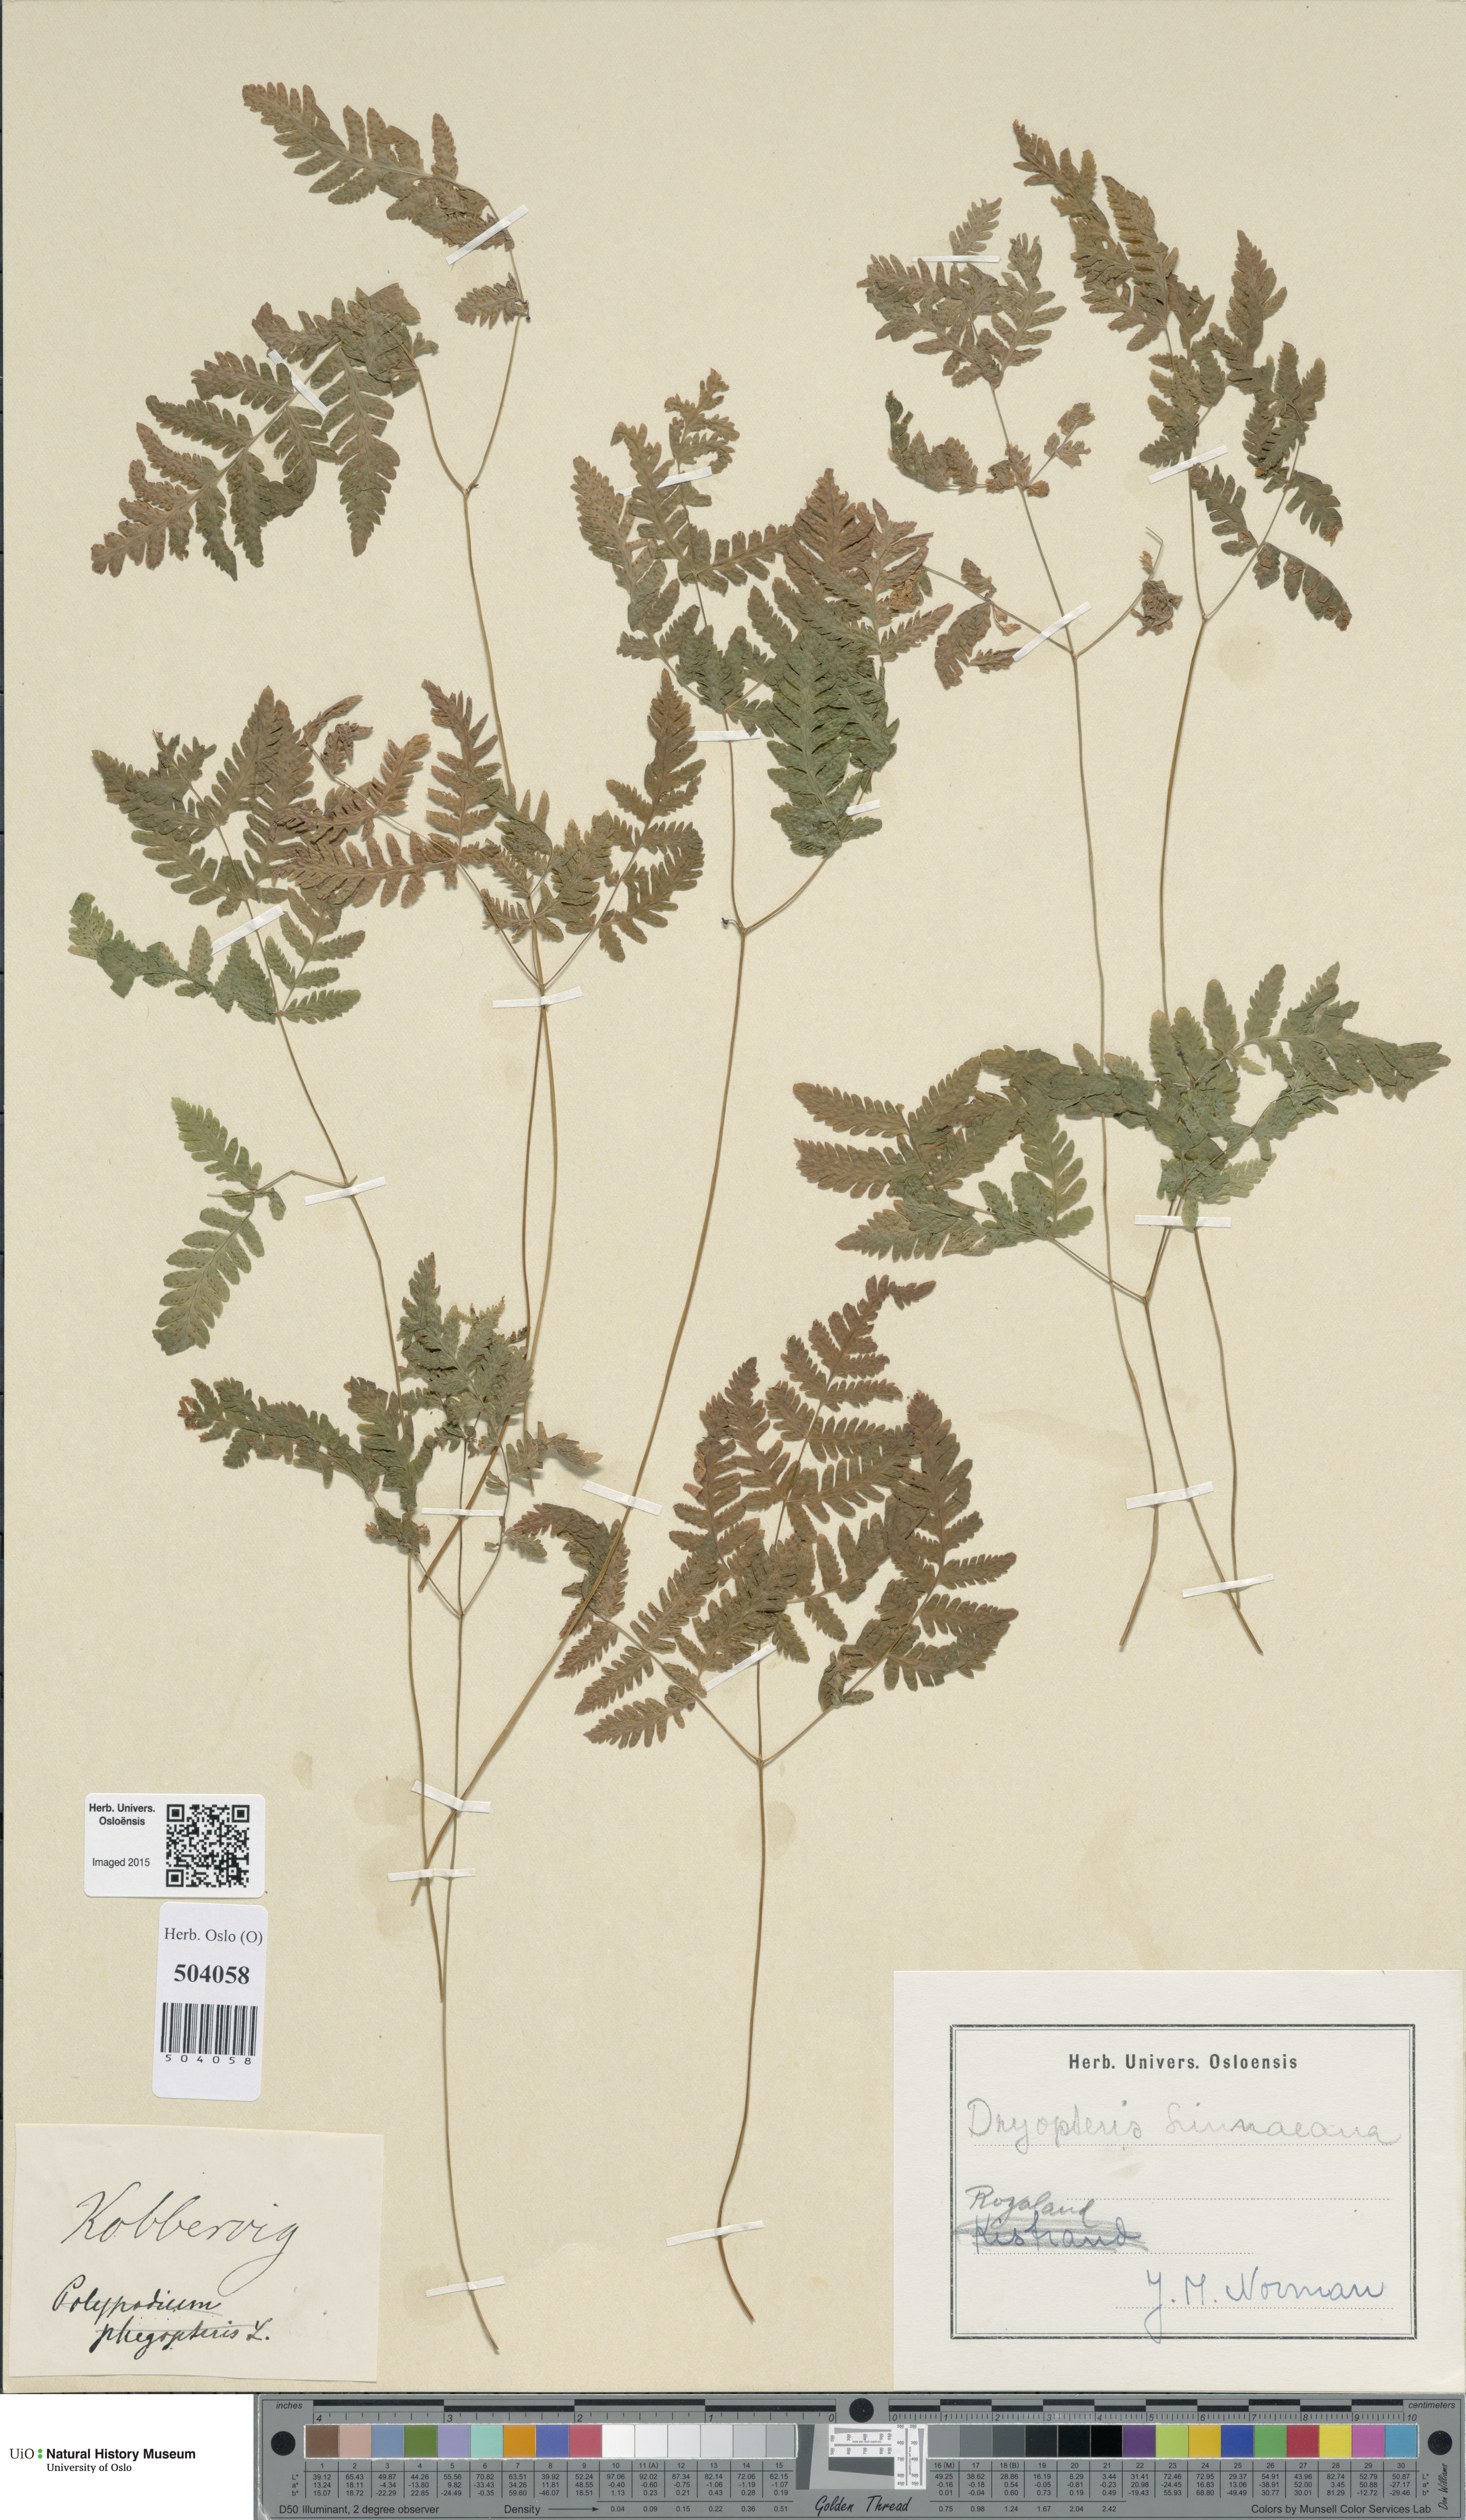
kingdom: Plantae
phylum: Tracheophyta
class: Polypodiopsida
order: Polypodiales
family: Cystopteridaceae
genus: Gymnocarpium
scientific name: Gymnocarpium dryopteris
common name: Oak fern
